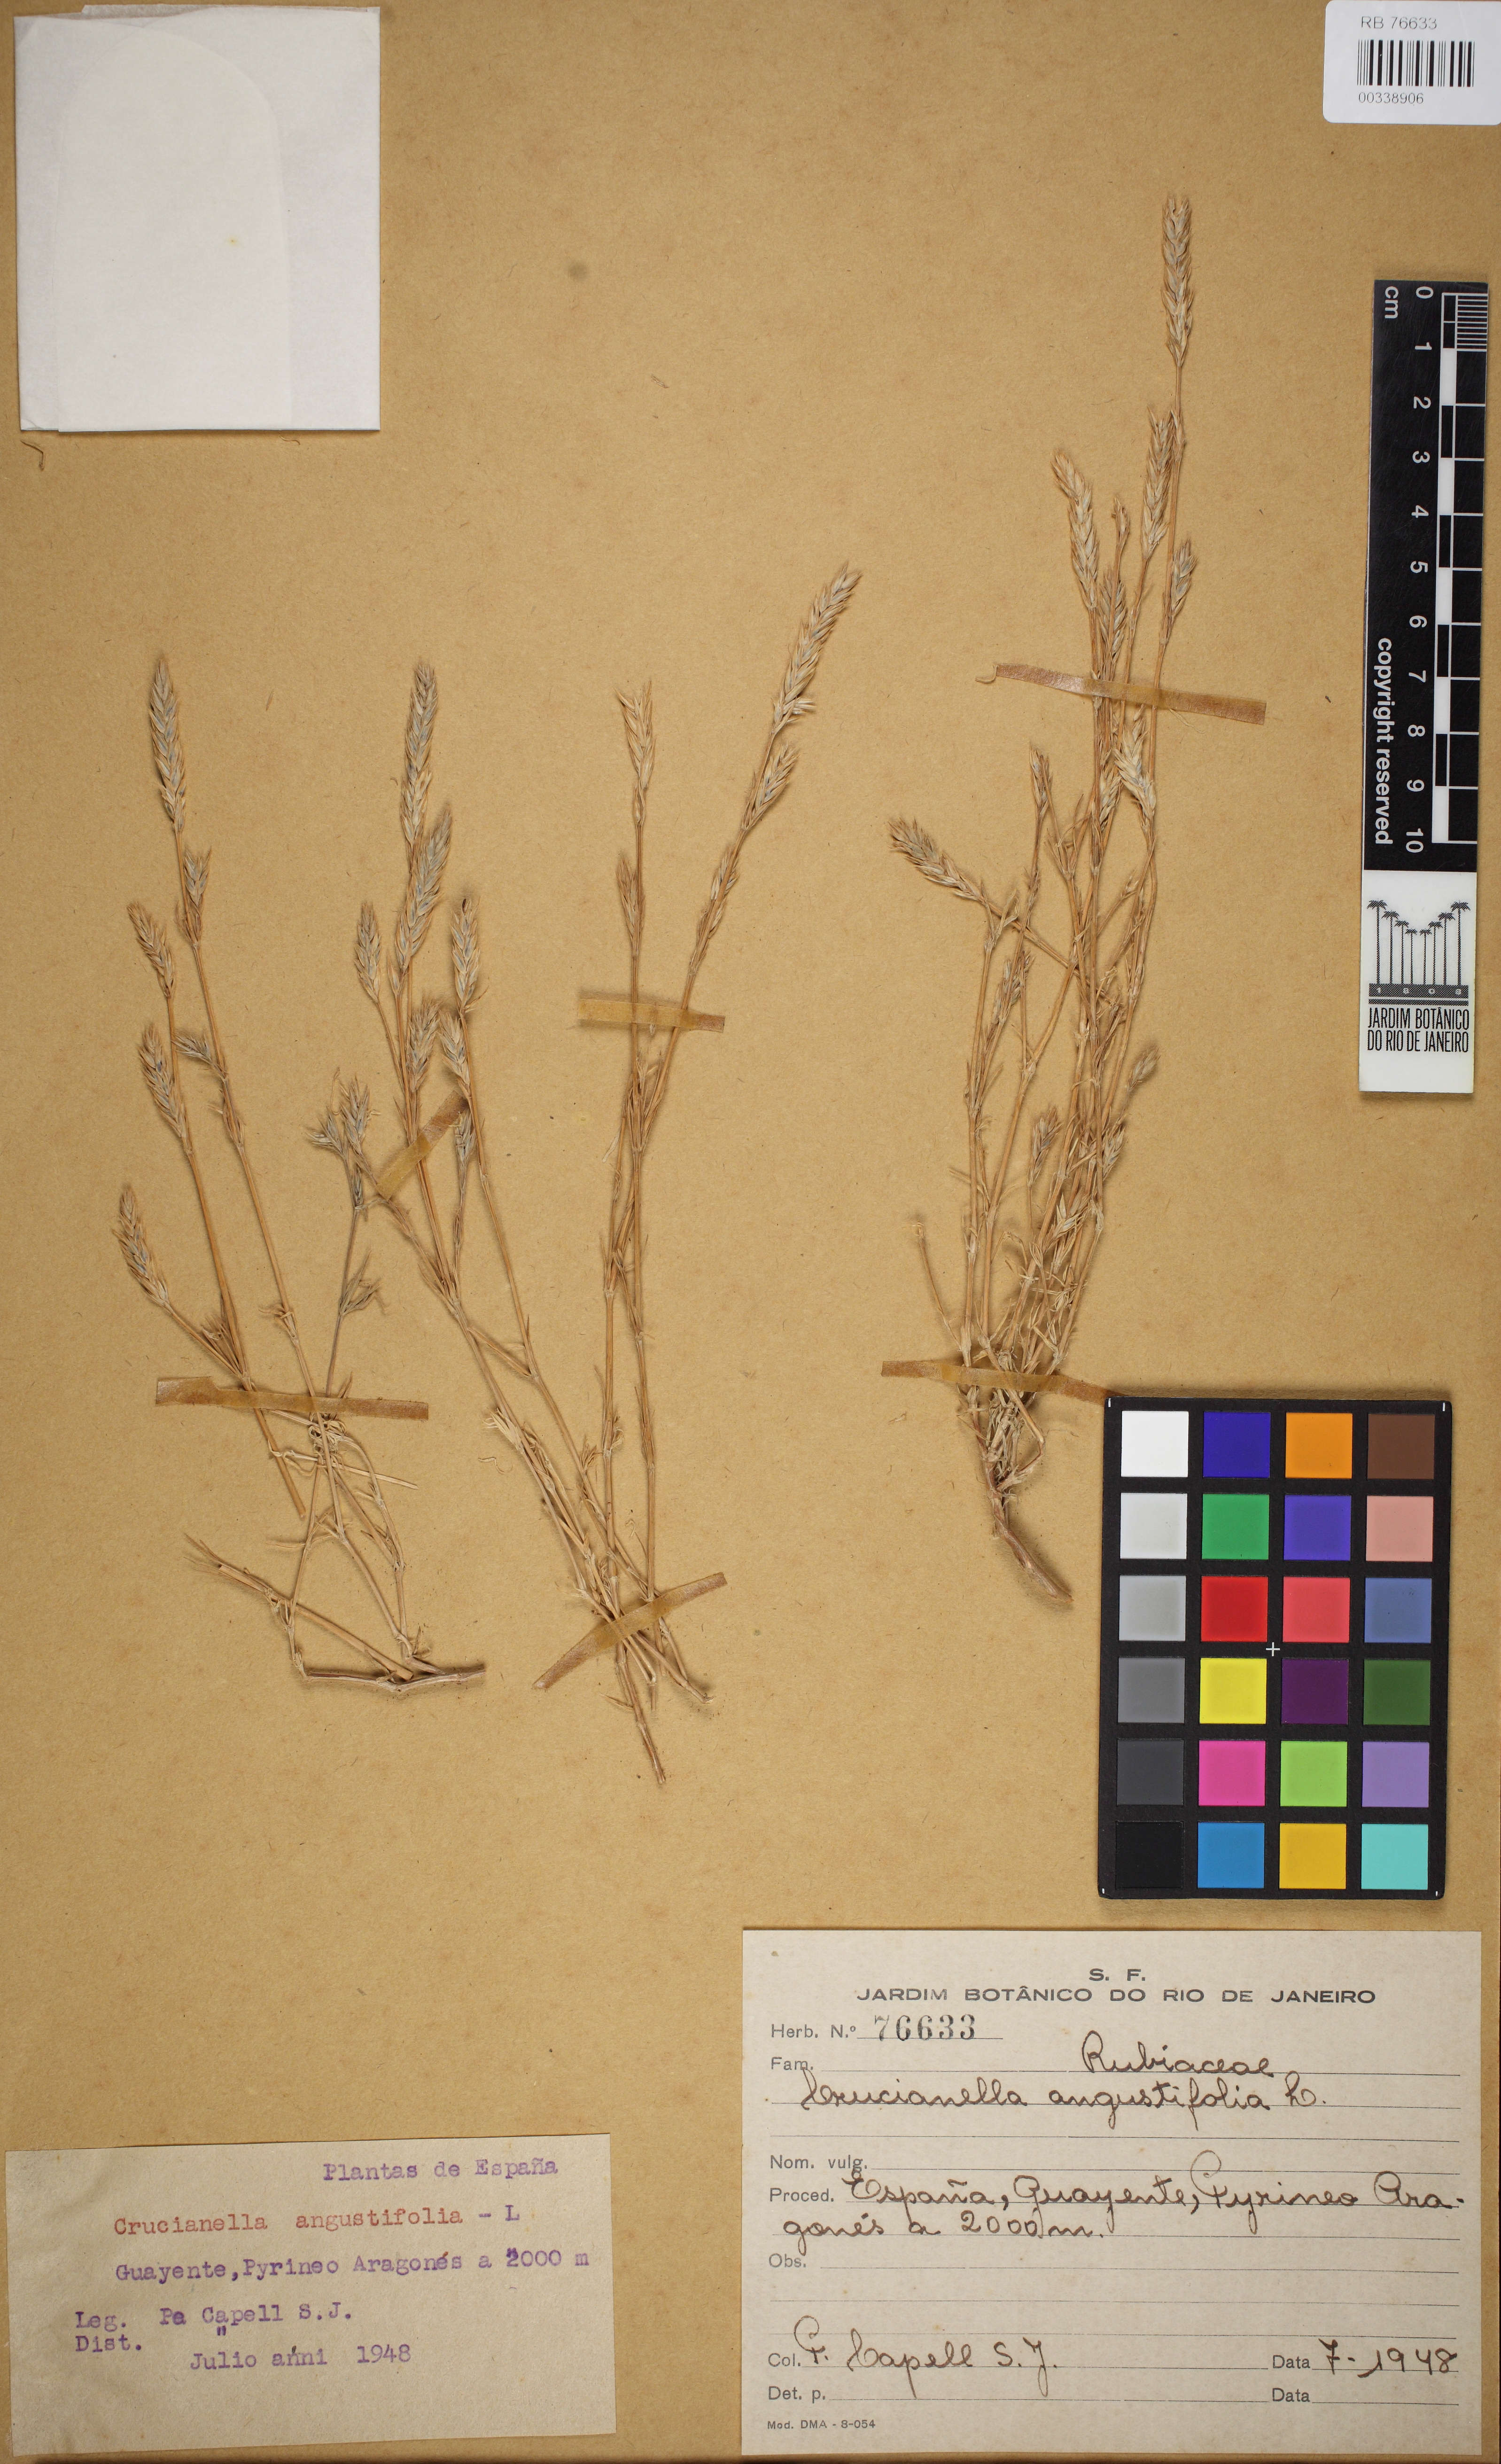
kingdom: Plantae
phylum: Tracheophyta
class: Magnoliopsida
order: Gentianales
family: Rubiaceae
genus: Crucianella
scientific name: Crucianella angustifolia
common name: Narrowleaf crucianella
